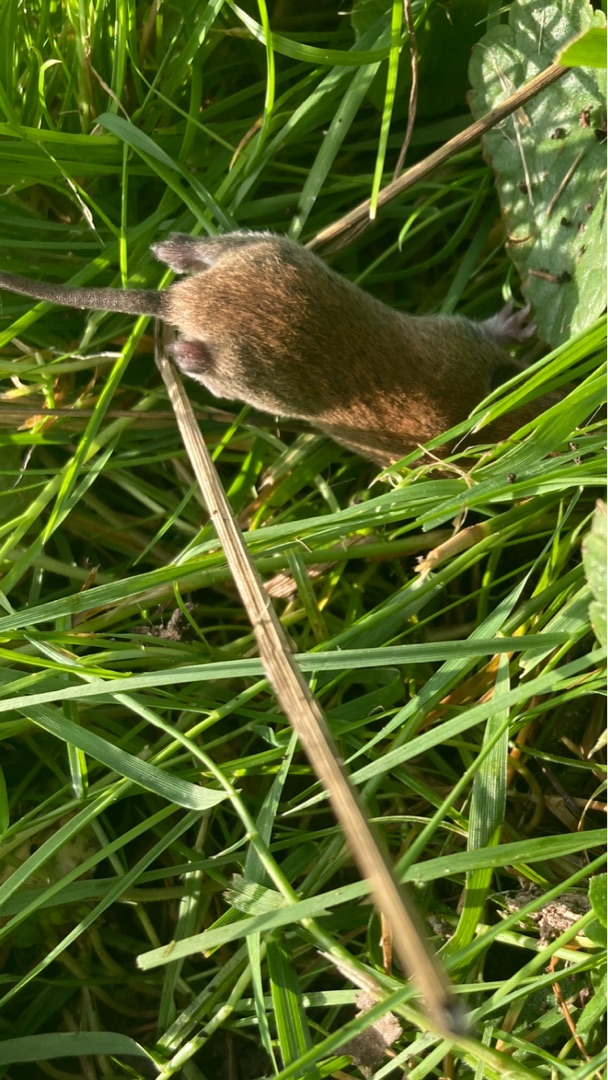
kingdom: Animalia
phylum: Chordata
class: Mammalia
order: Rodentia
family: Cricetidae
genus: Myodes
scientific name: Myodes glareolus
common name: Rødmus
